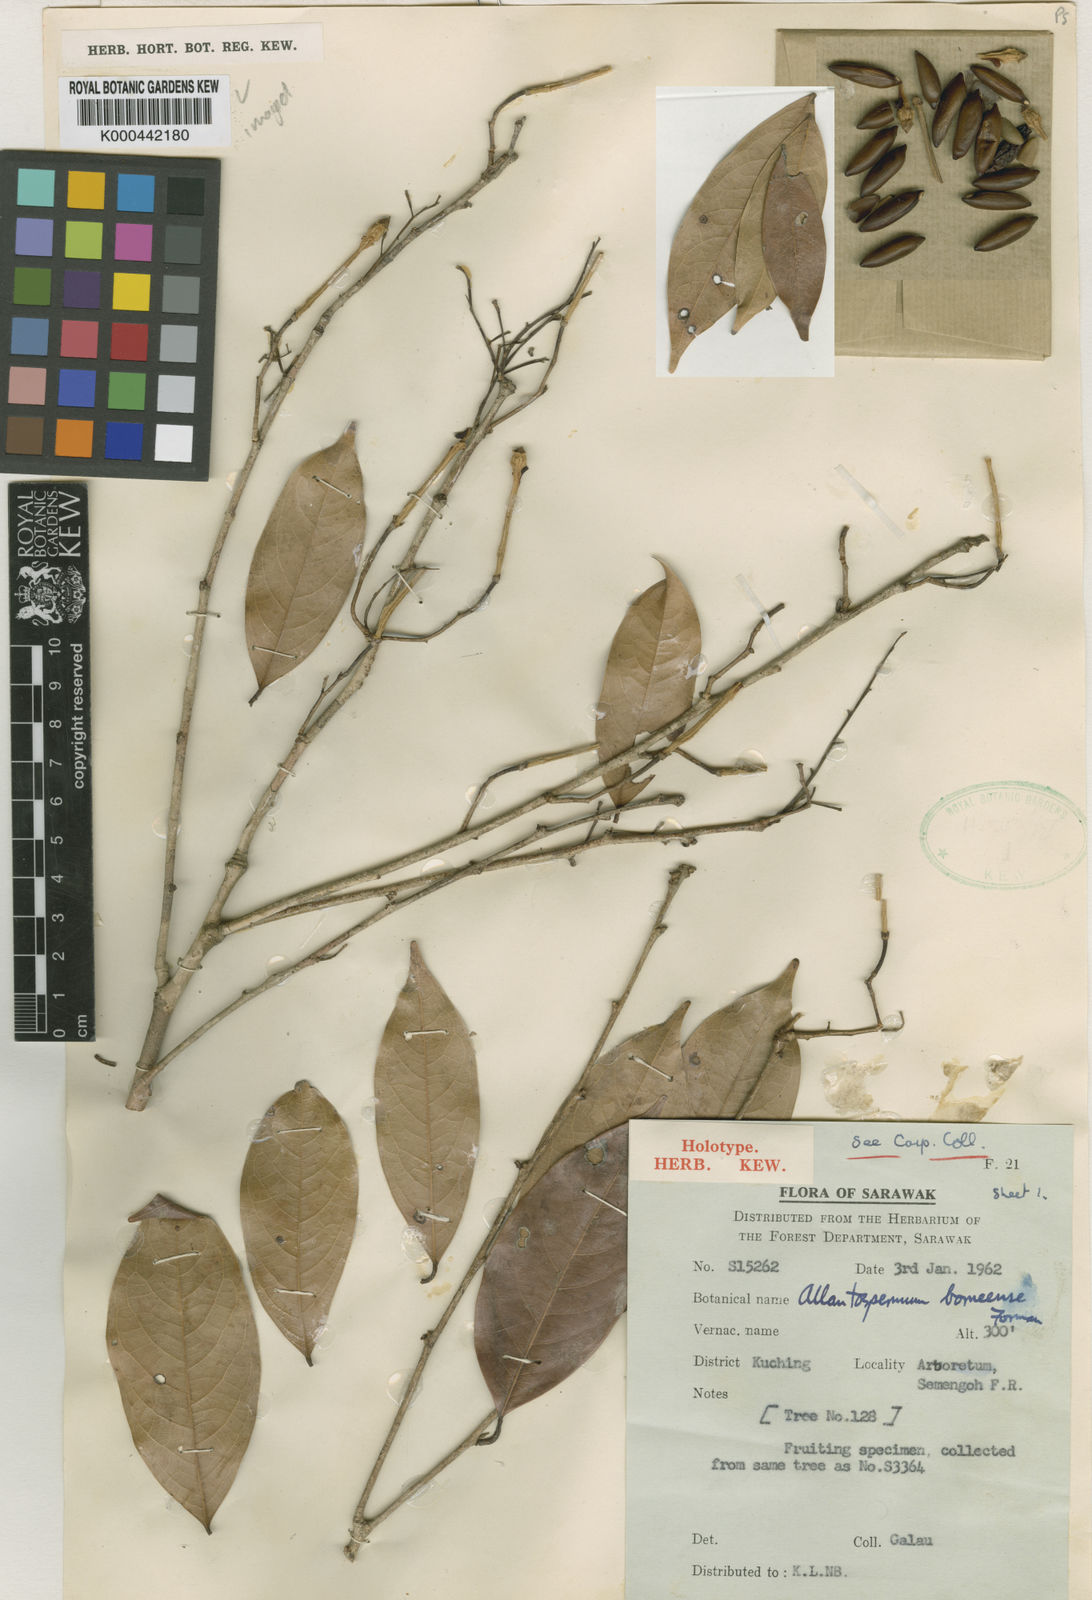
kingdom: Plantae
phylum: Tracheophyta
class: Magnoliopsida
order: Malpighiales
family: Ixonanthaceae
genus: Allantospermum
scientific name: Allantospermum borneense
